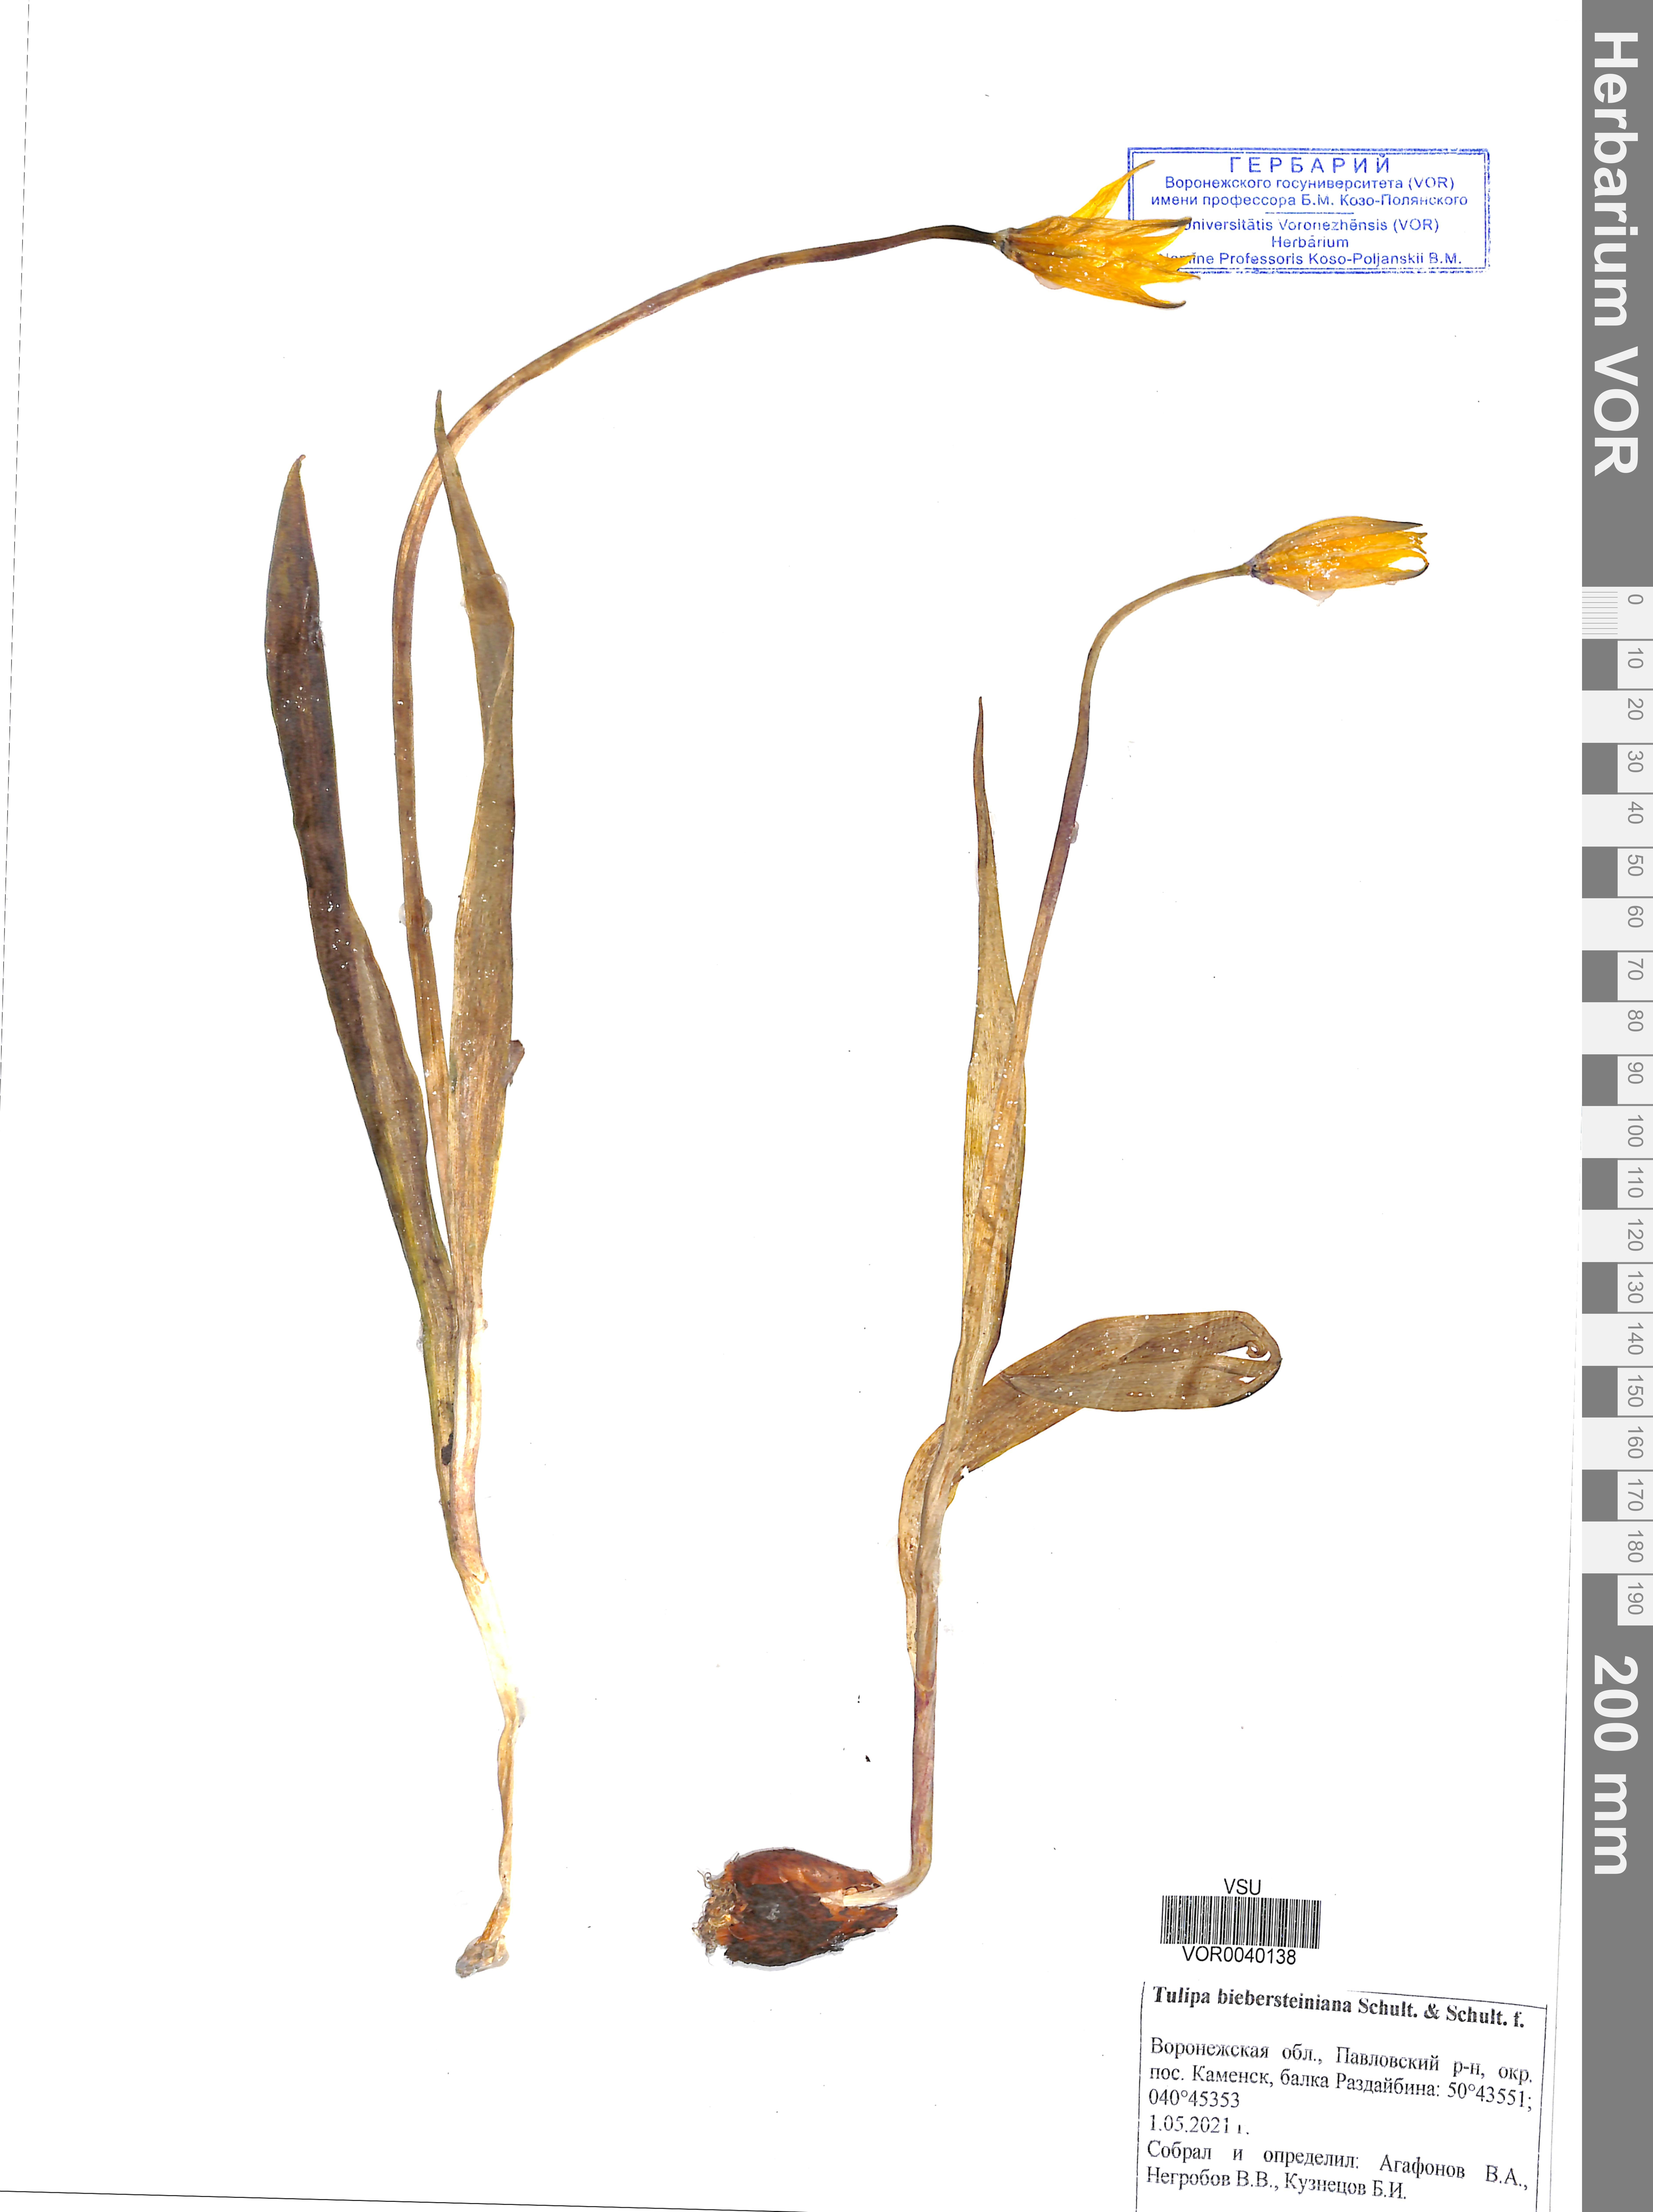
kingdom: Plantae
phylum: Tracheophyta
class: Liliopsida
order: Liliales
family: Liliaceae
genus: Tulipa
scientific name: Tulipa sylvestris
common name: Wild tulip
